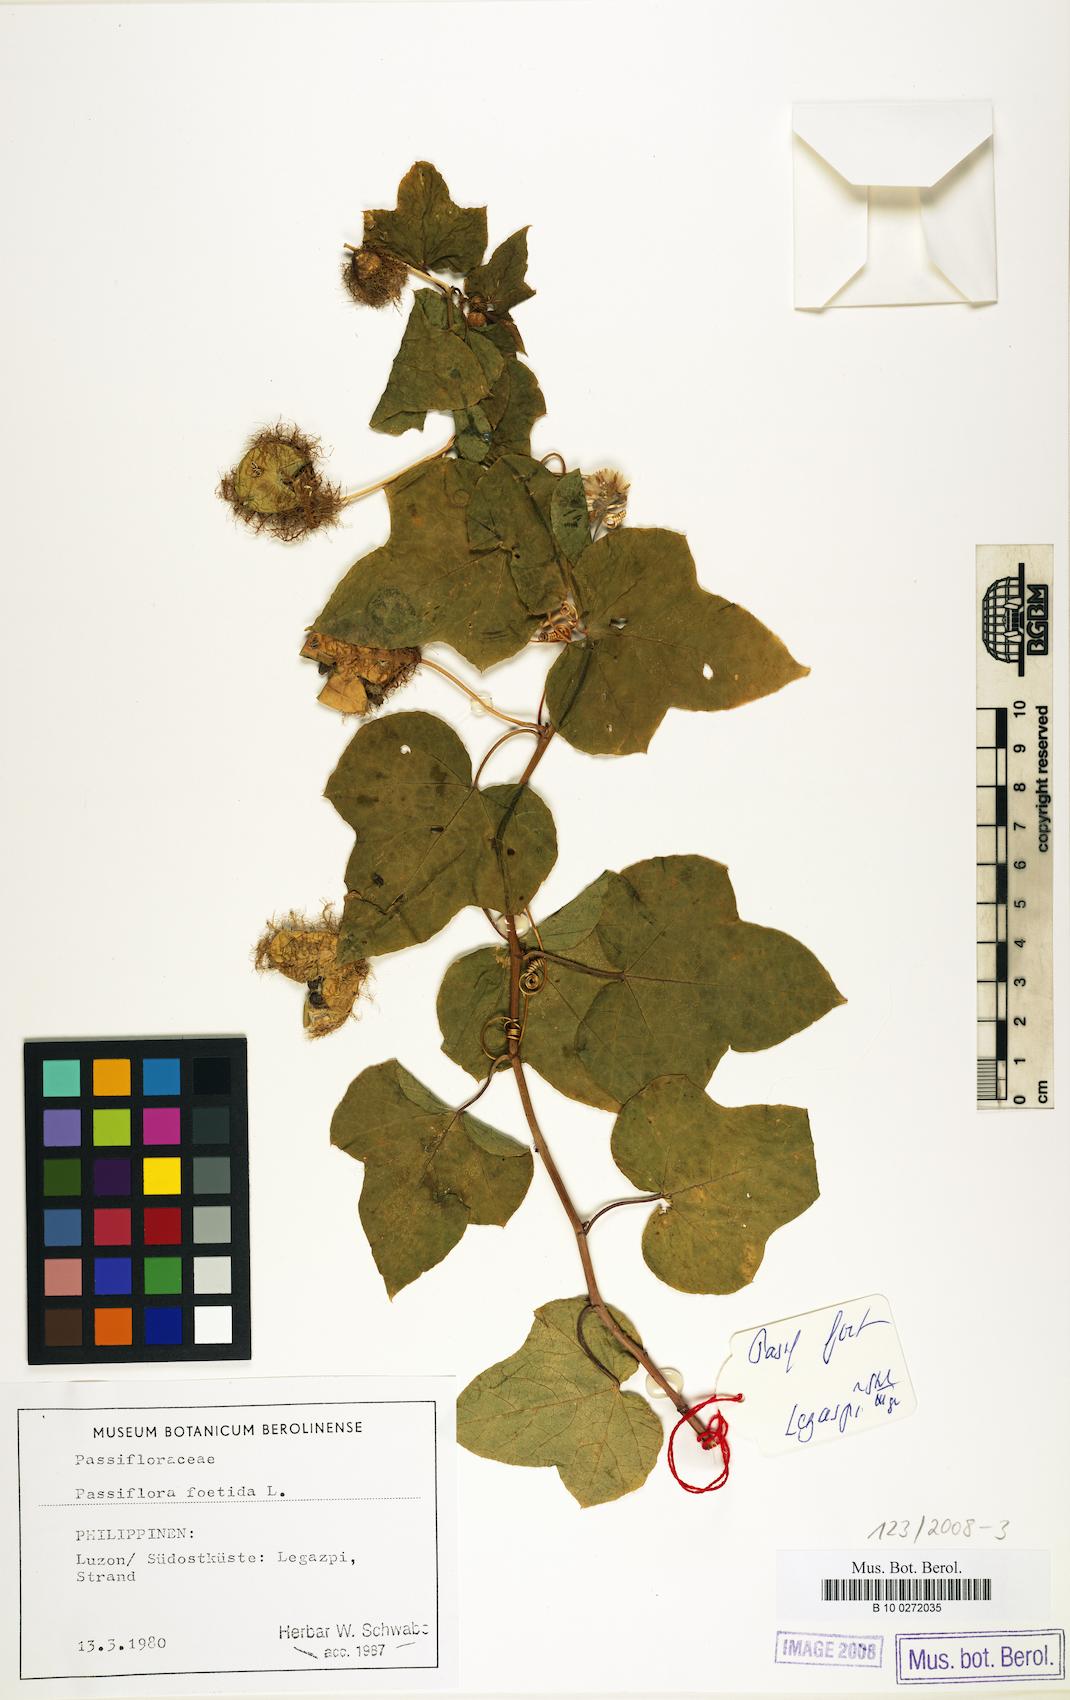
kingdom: Plantae
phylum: Tracheophyta
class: Magnoliopsida
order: Malpighiales
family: Passifloraceae
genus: Passiflora
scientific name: Passiflora foetida
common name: Fetid passionflower
